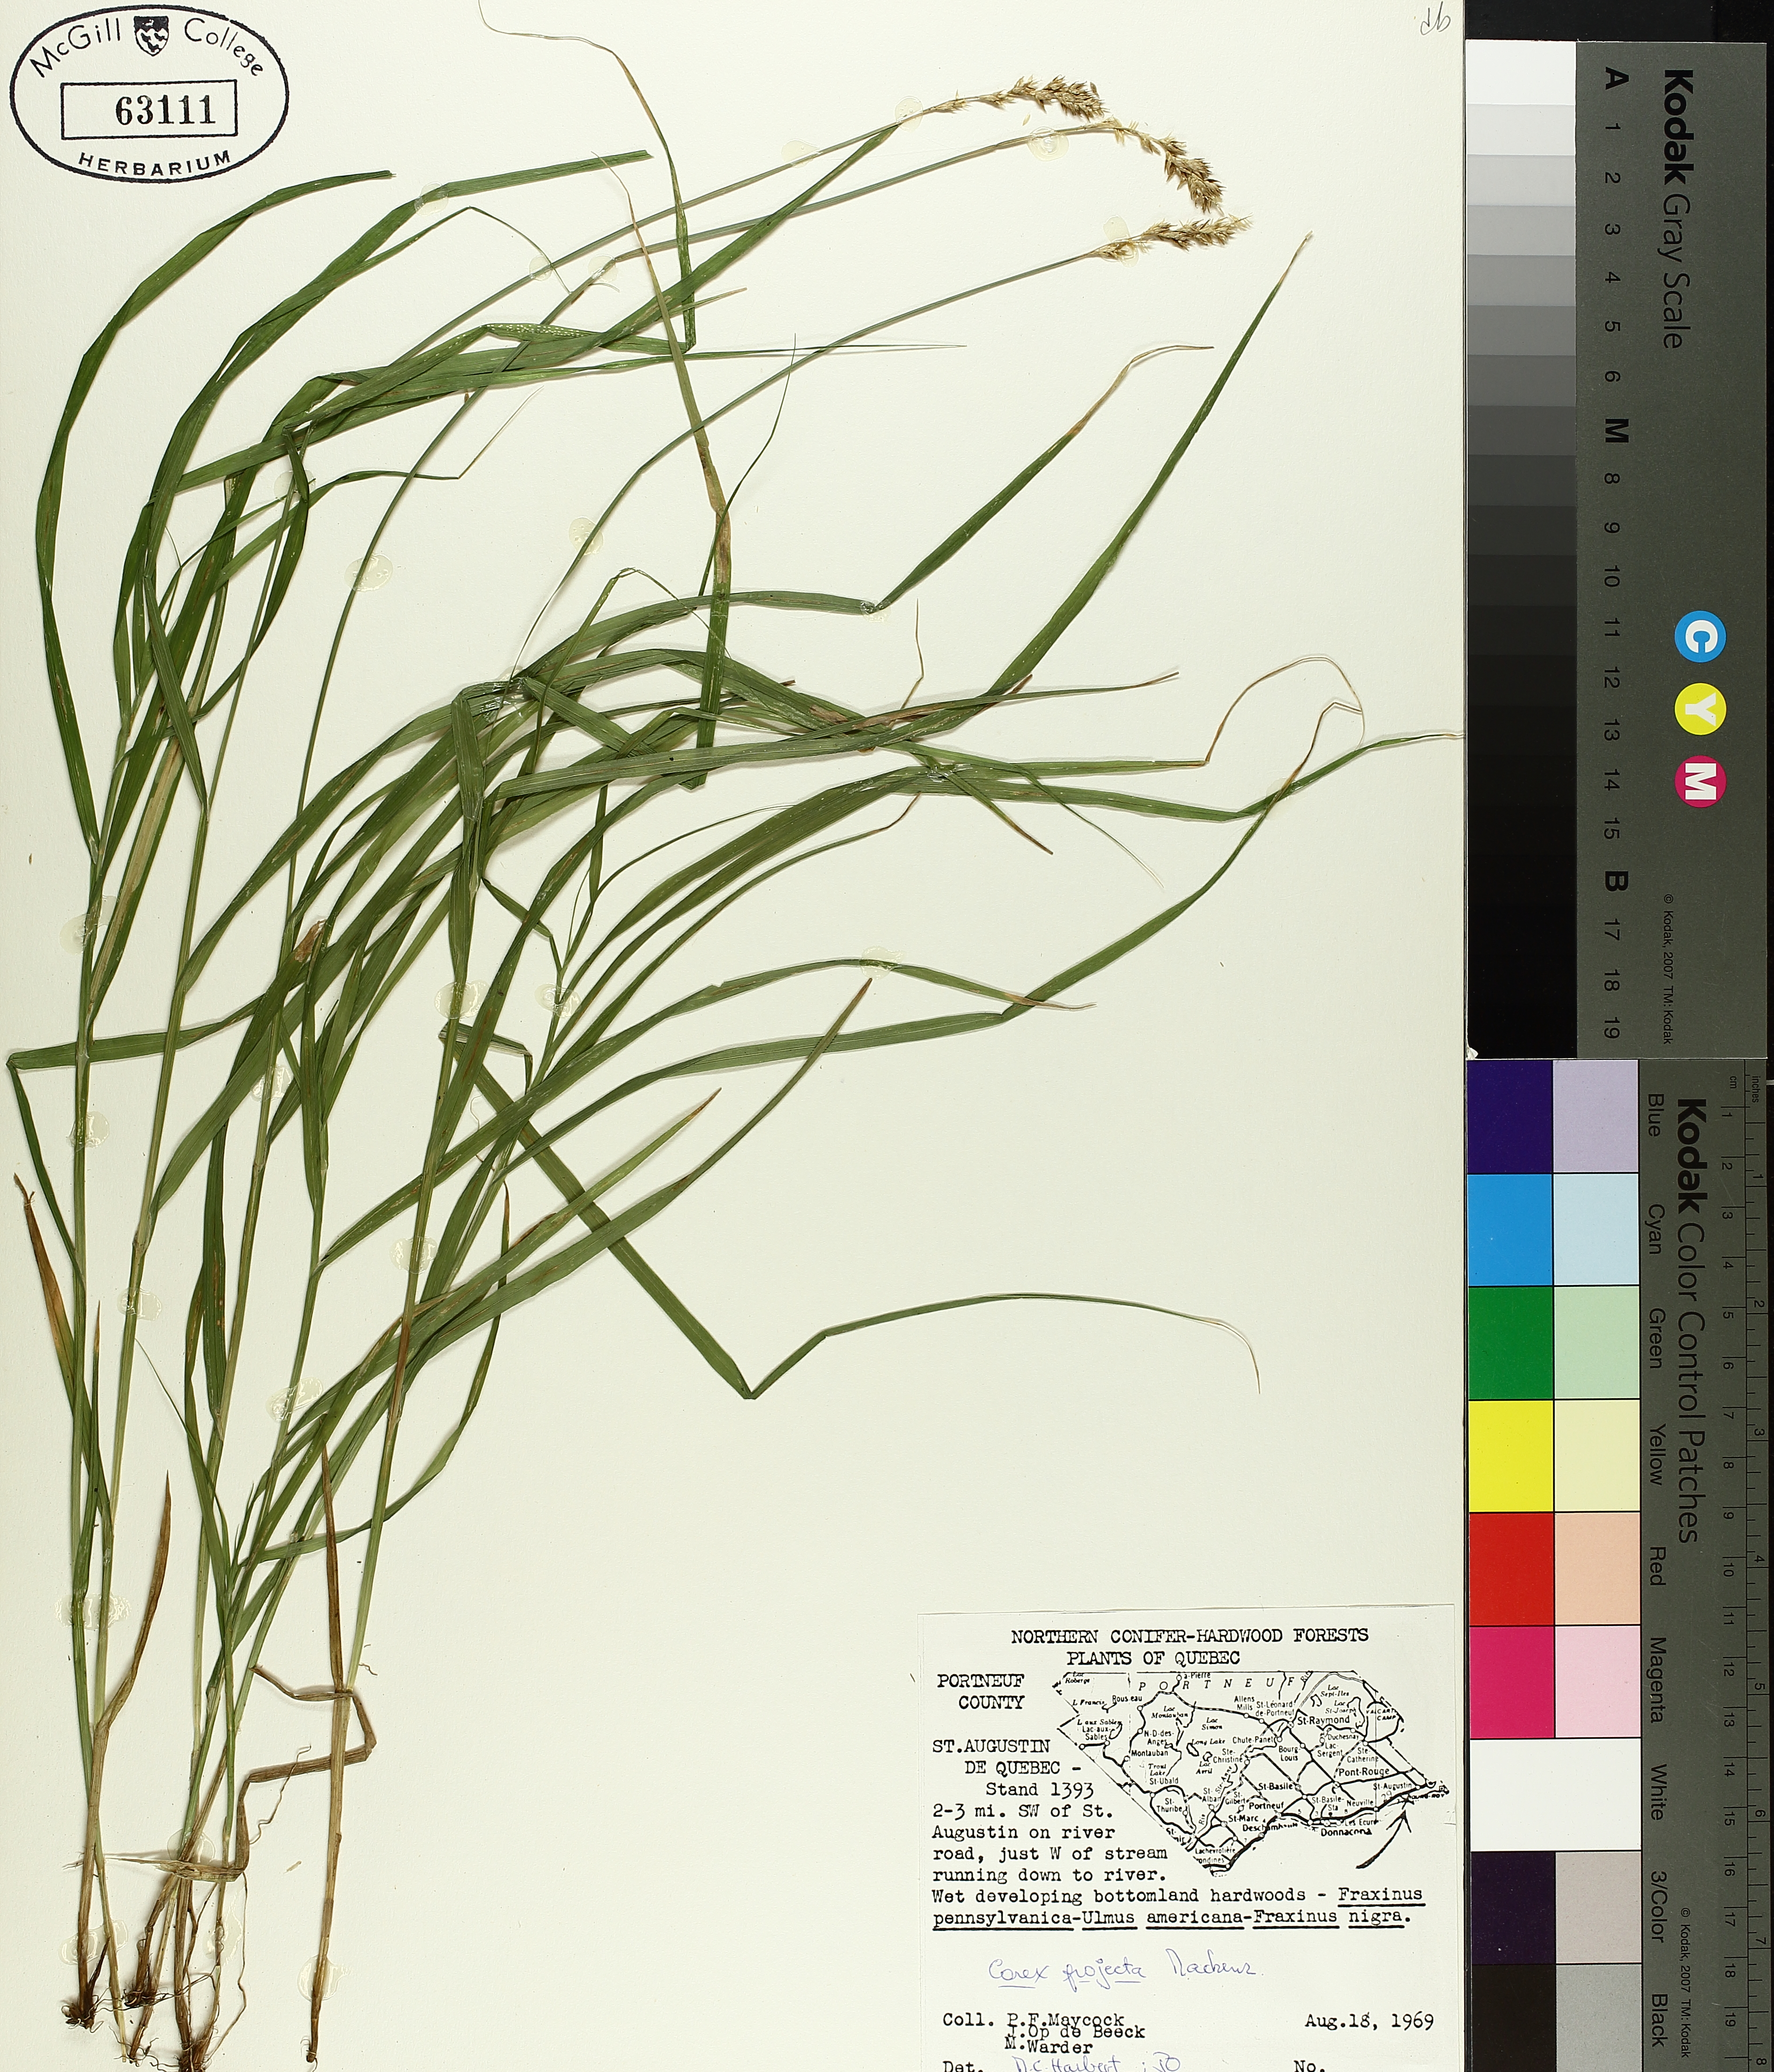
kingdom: Plantae
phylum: Tracheophyta
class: Liliopsida
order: Poales
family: Cyperaceae
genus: Carex
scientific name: Carex projecta
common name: Loose-headed oval sedge
